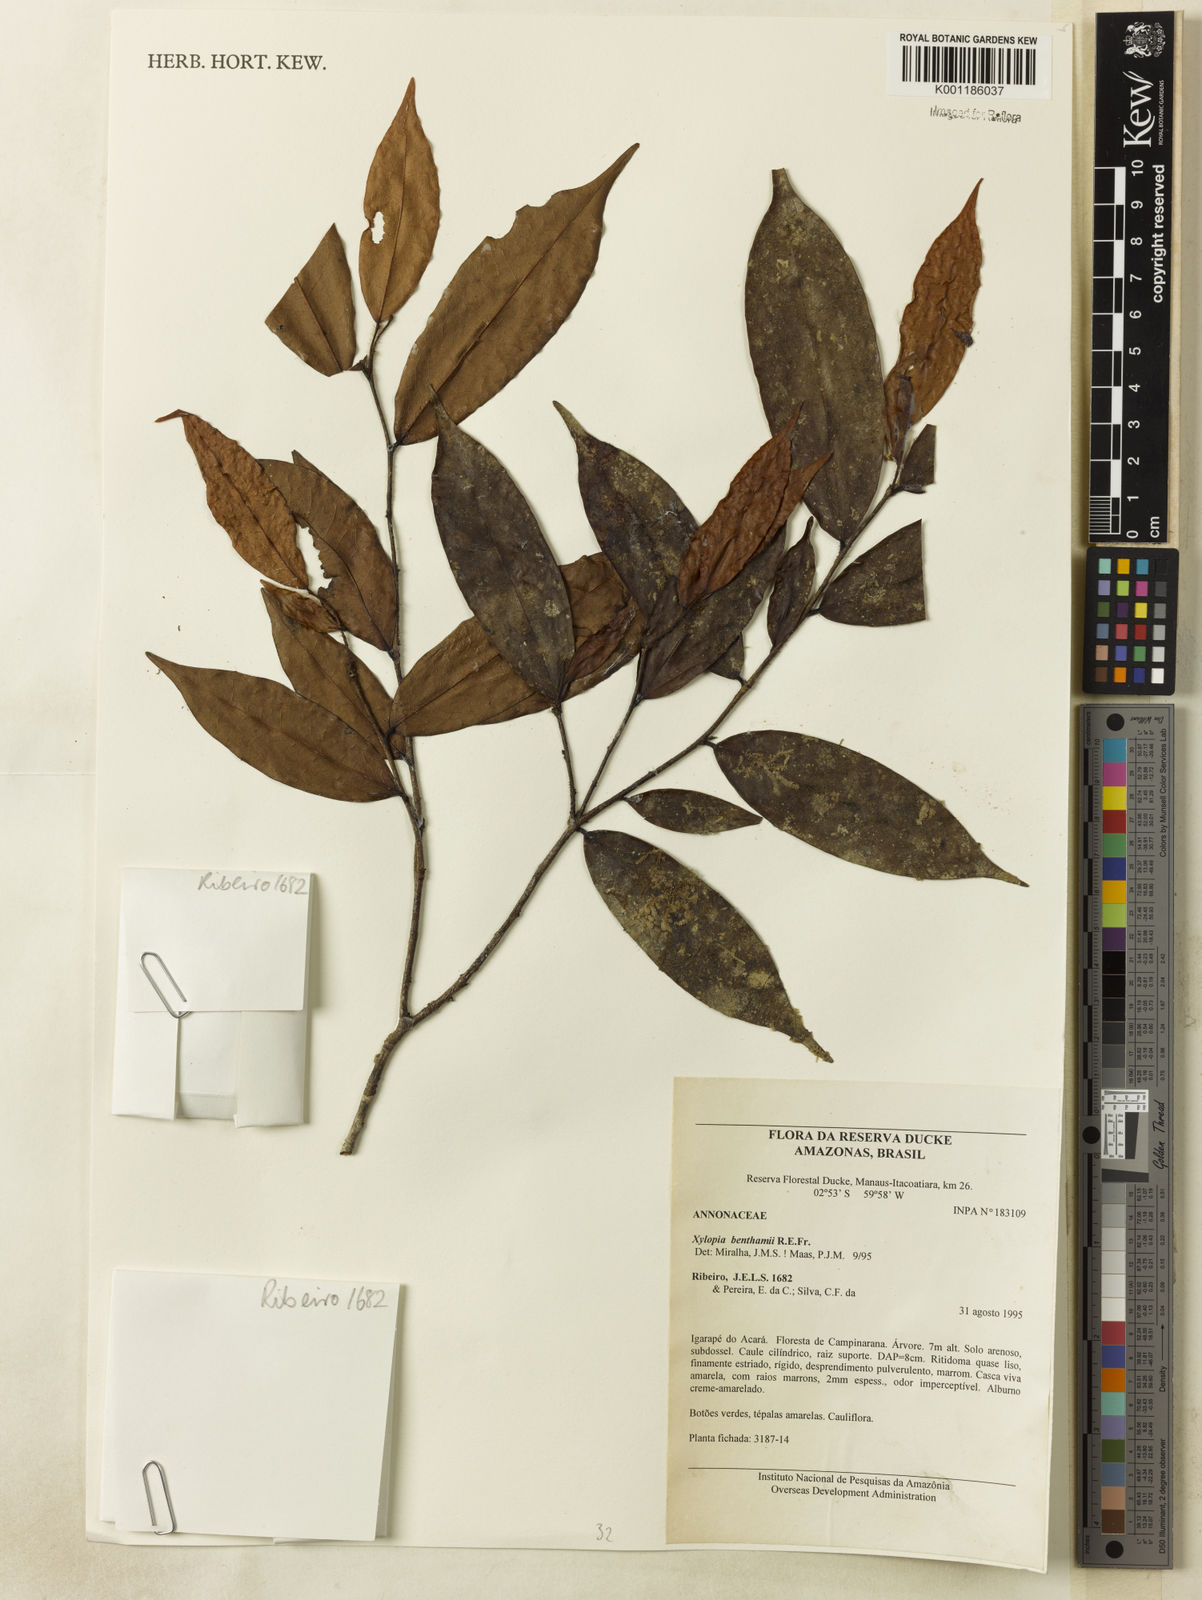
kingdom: Plantae
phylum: Tracheophyta
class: Magnoliopsida
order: Magnoliales
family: Annonaceae
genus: Xylopia
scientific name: Xylopia benthamii
